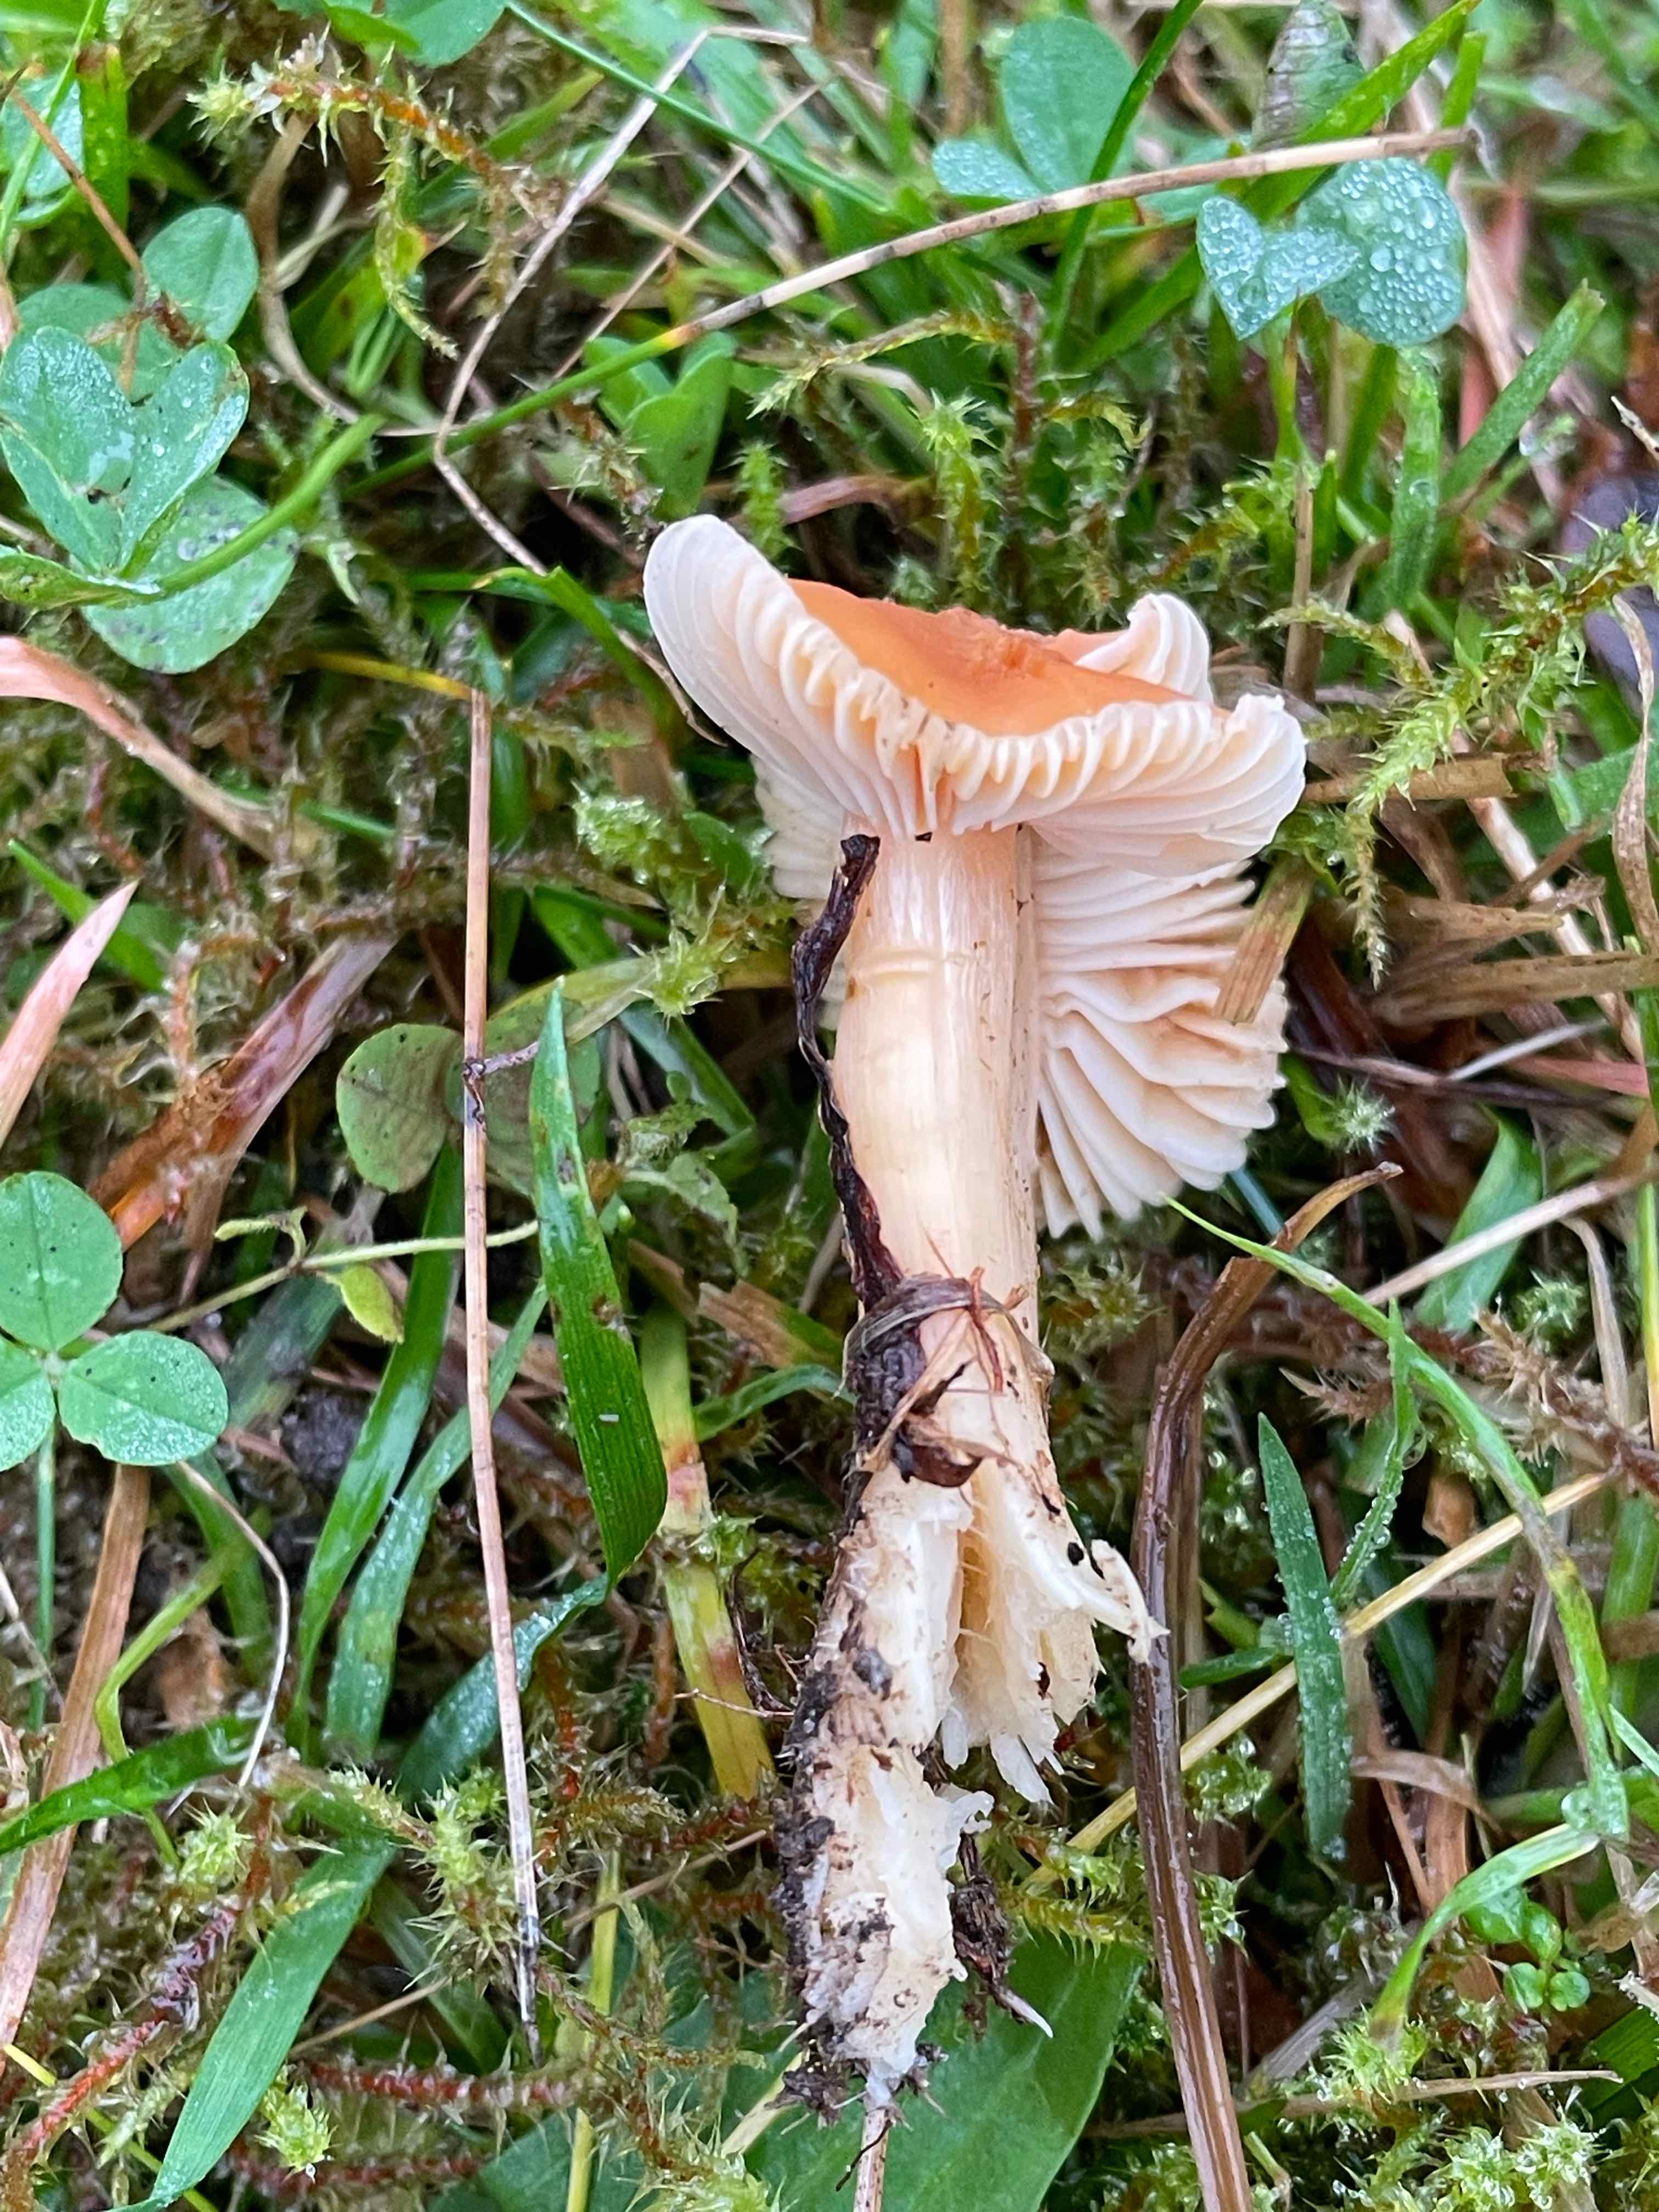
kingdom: Fungi
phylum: Basidiomycota
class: Agaricomycetes
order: Agaricales
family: Hygrophoraceae
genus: Cuphophyllus
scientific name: Cuphophyllus pratensis
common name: eng-vokshat
